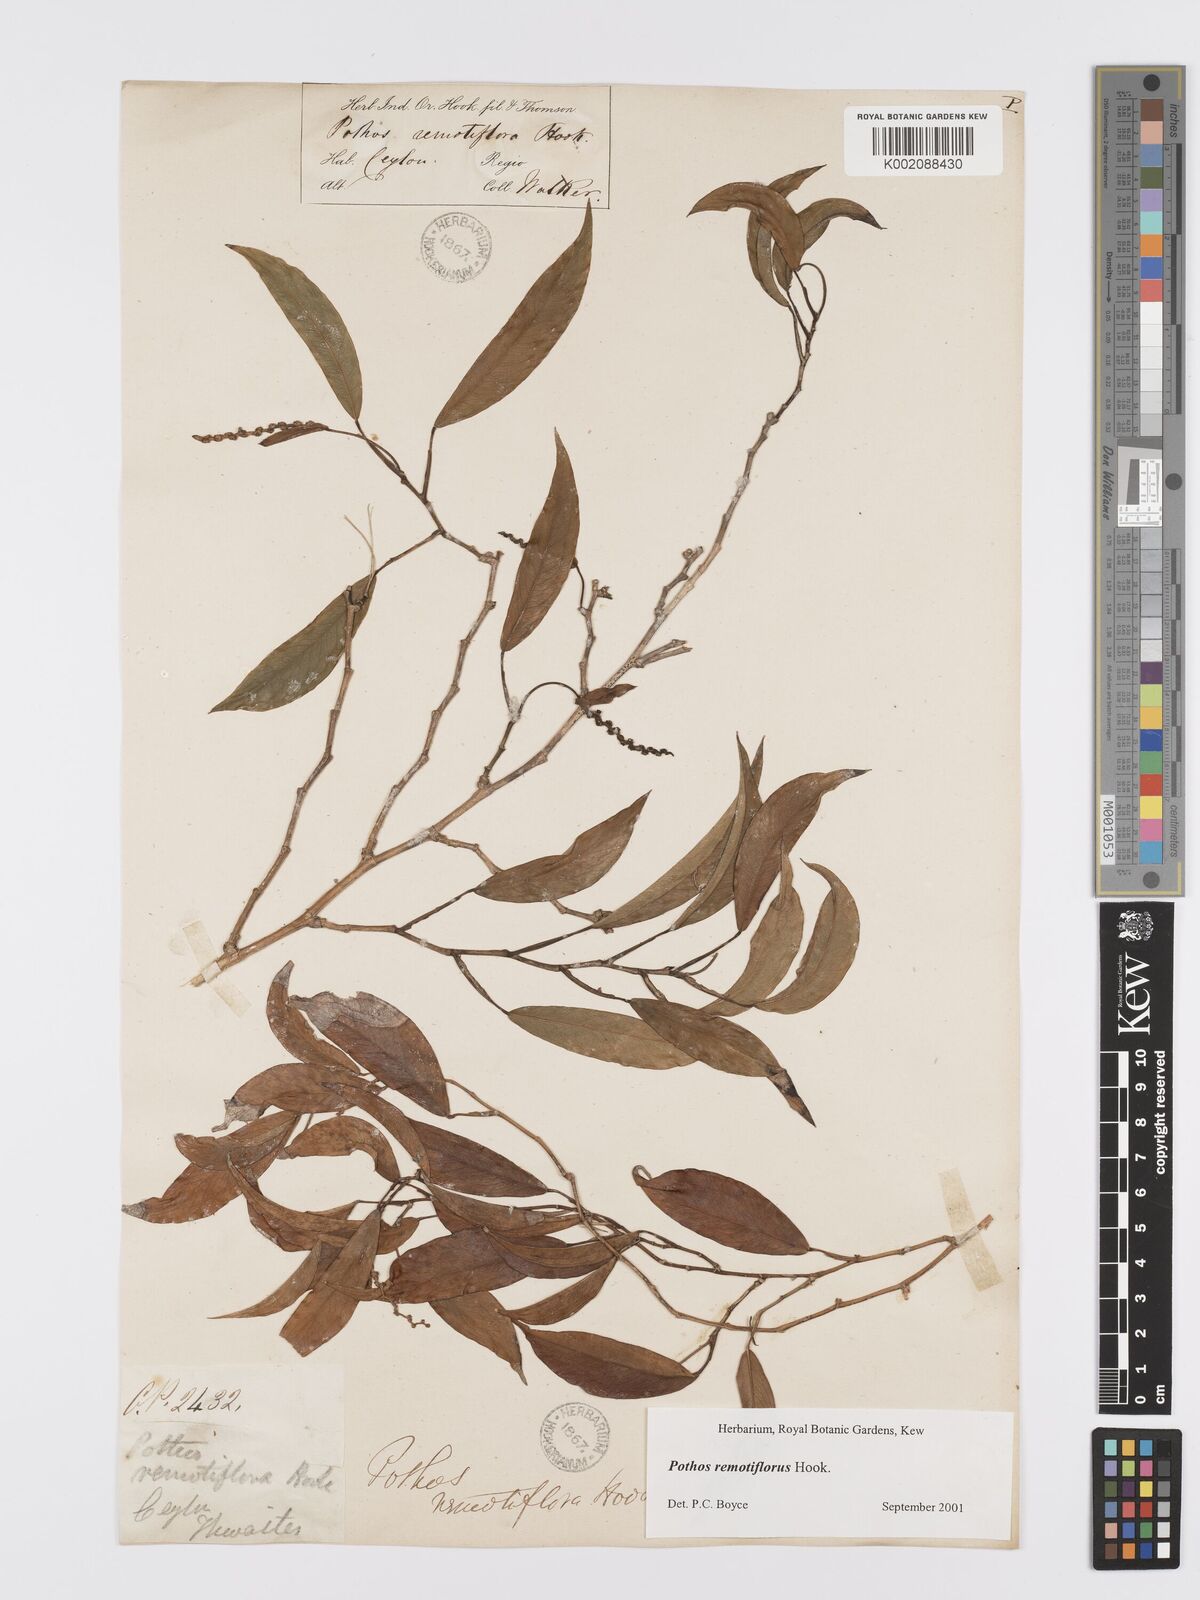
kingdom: Plantae
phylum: Tracheophyta
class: Liliopsida
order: Alismatales
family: Araceae
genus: Pothos
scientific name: Pothos remotiflorus
